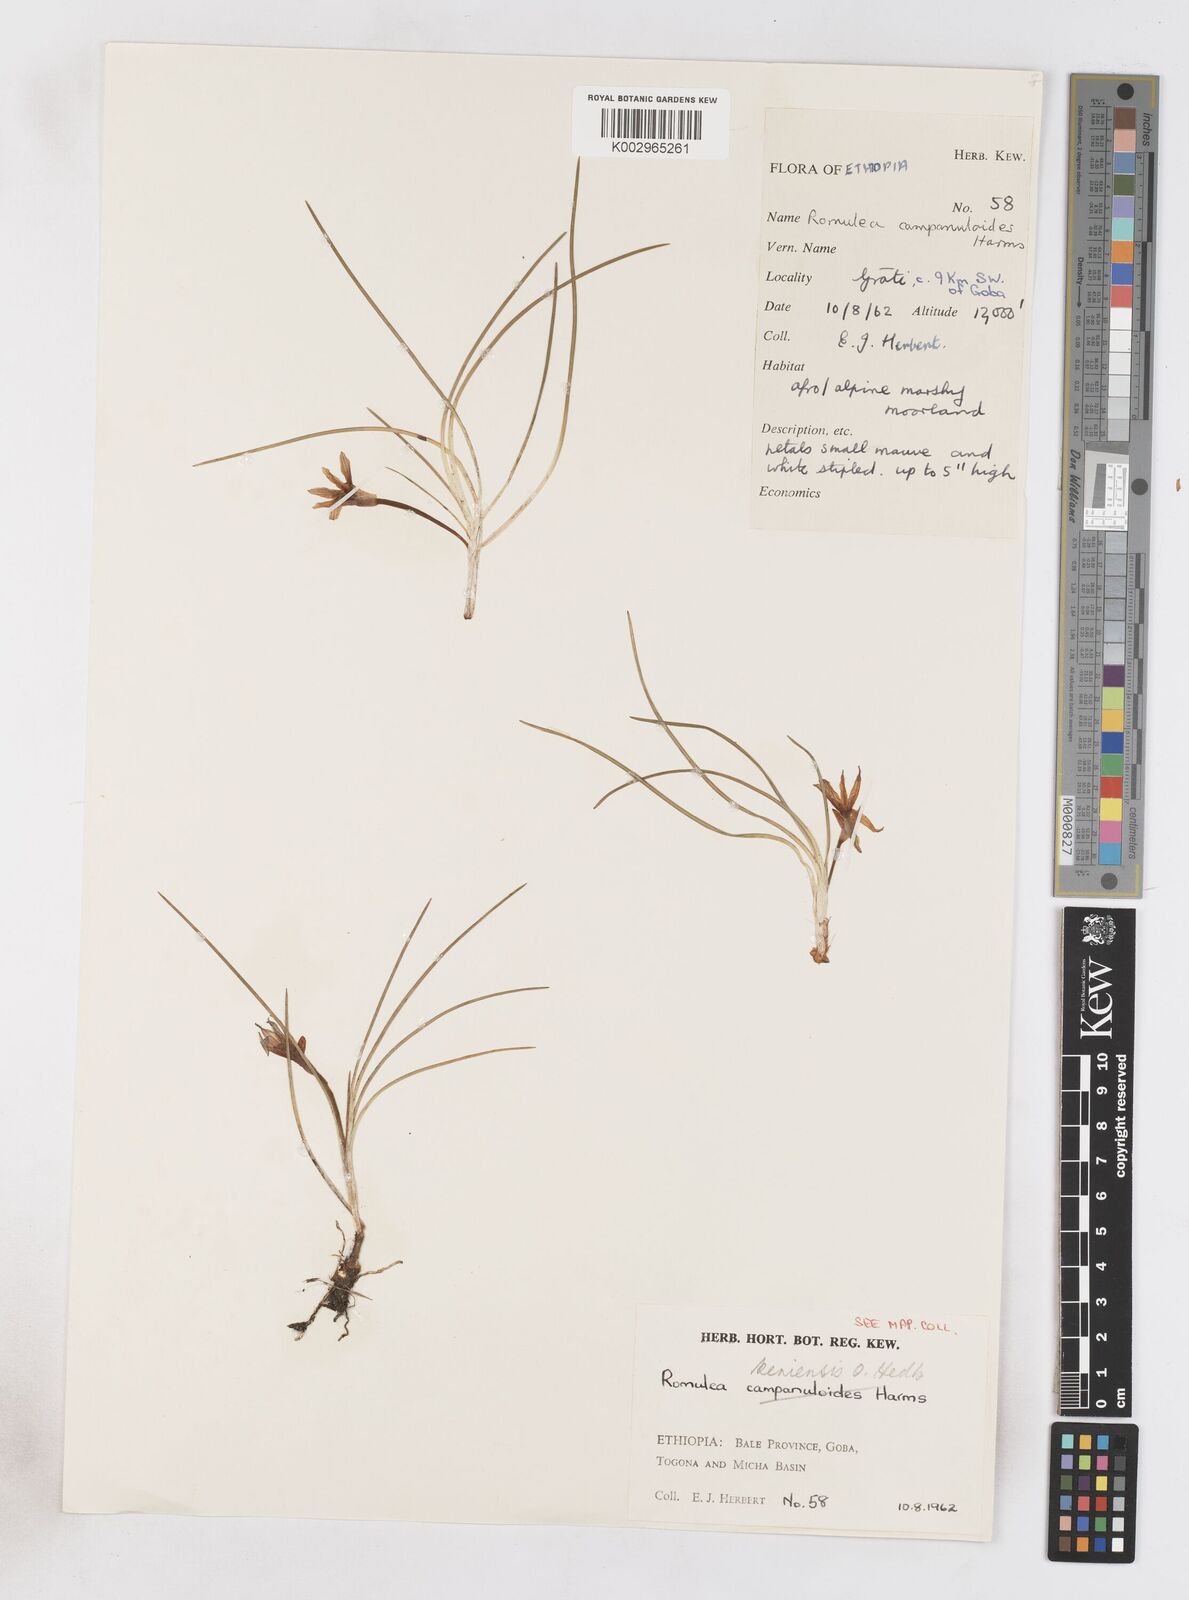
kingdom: Plantae
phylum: Tracheophyta
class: Liliopsida
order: Asparagales
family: Iridaceae
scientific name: Iridaceae
